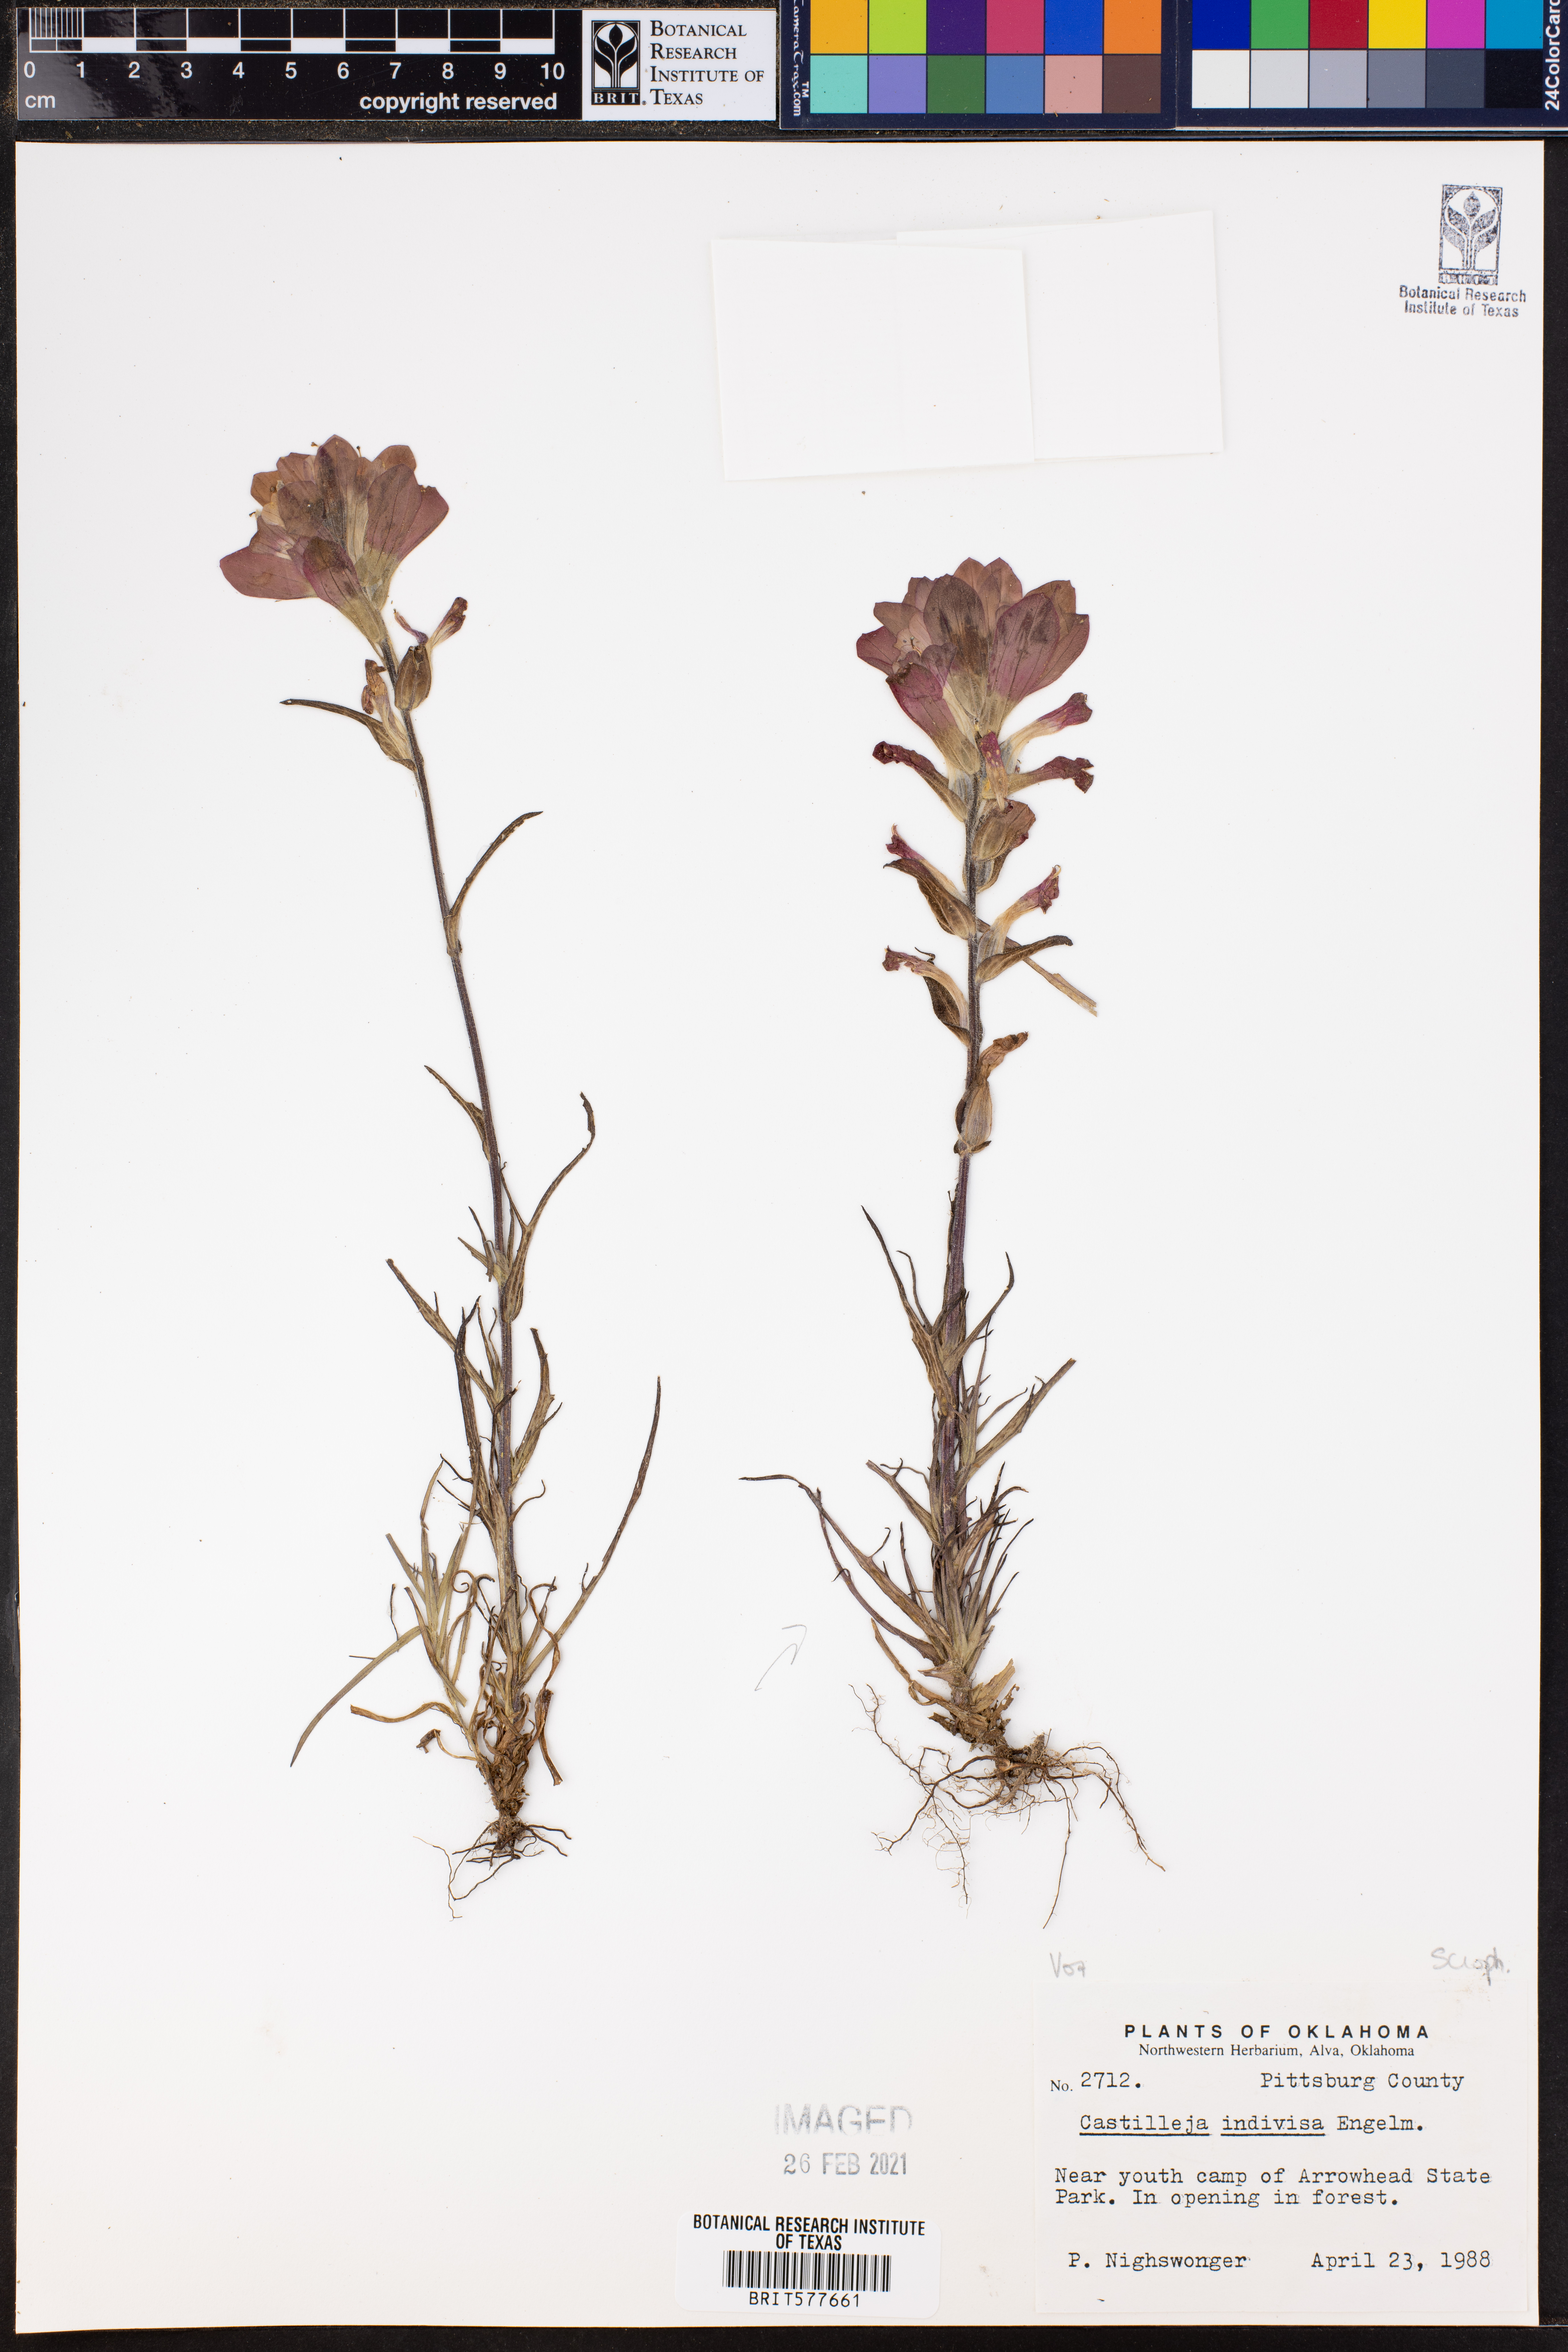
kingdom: Plantae
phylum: Tracheophyta
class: Magnoliopsida
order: Lamiales
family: Orobanchaceae
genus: Castilleja
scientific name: Castilleja indivisa
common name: Texas paintbrush
